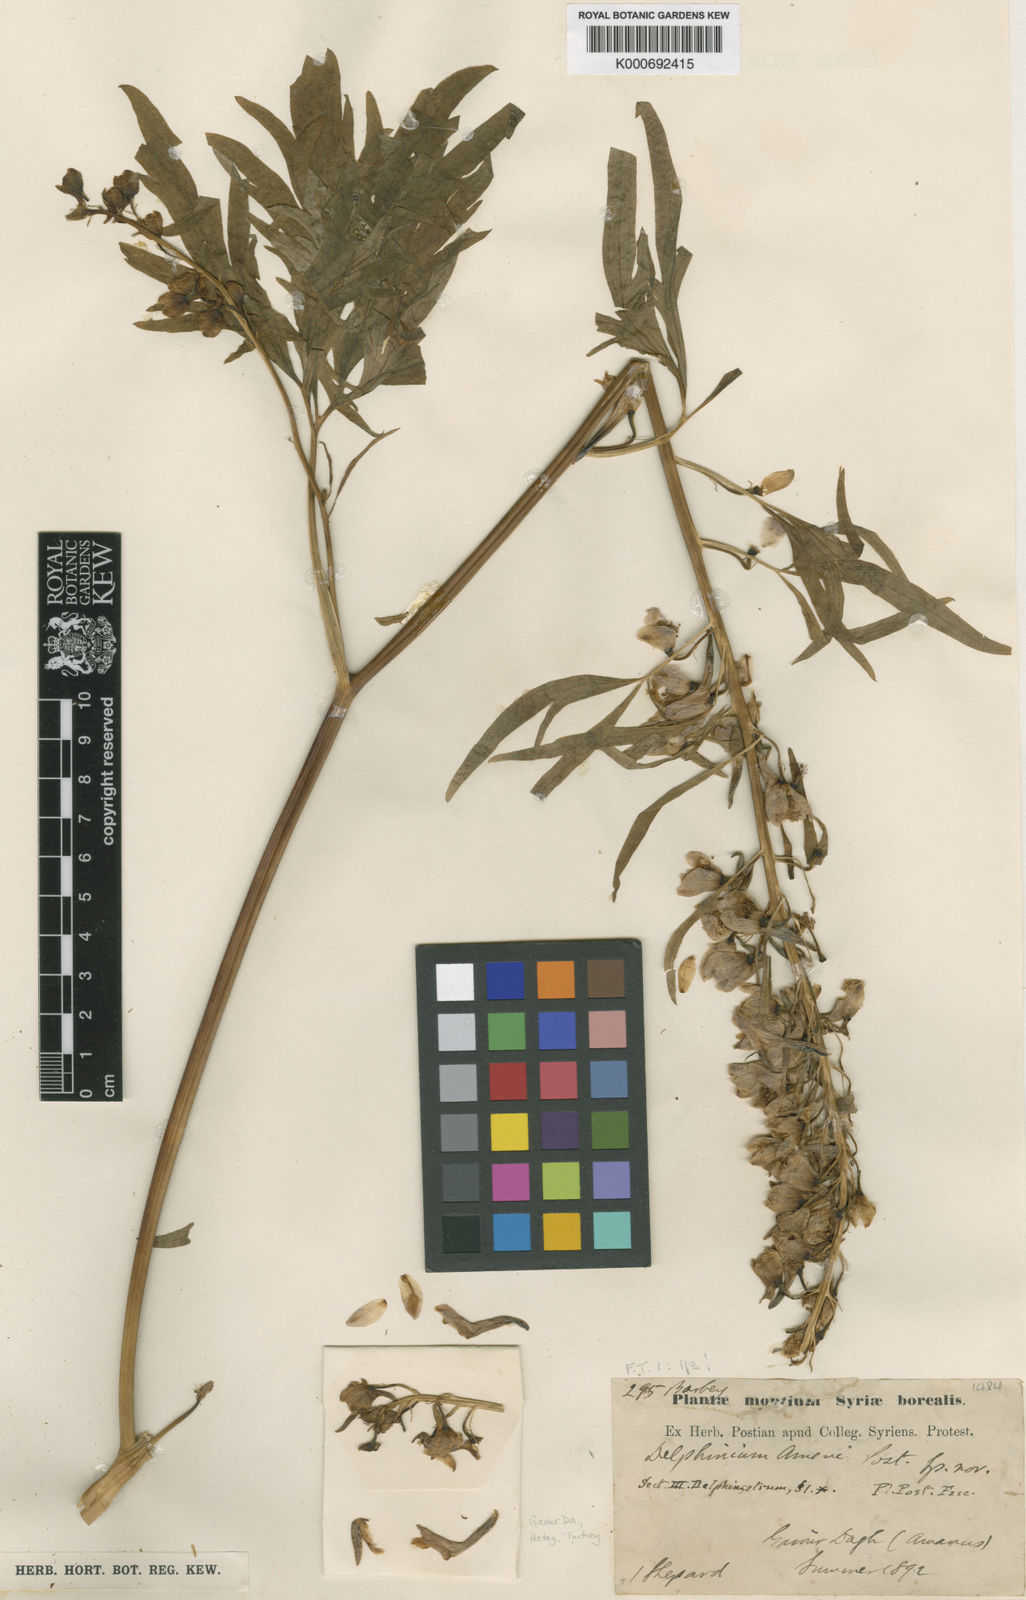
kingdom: Plantae
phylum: Tracheophyta
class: Magnoliopsida
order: Ranunculales
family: Ranunculaceae
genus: Delphinium
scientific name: Delphinium fissum
